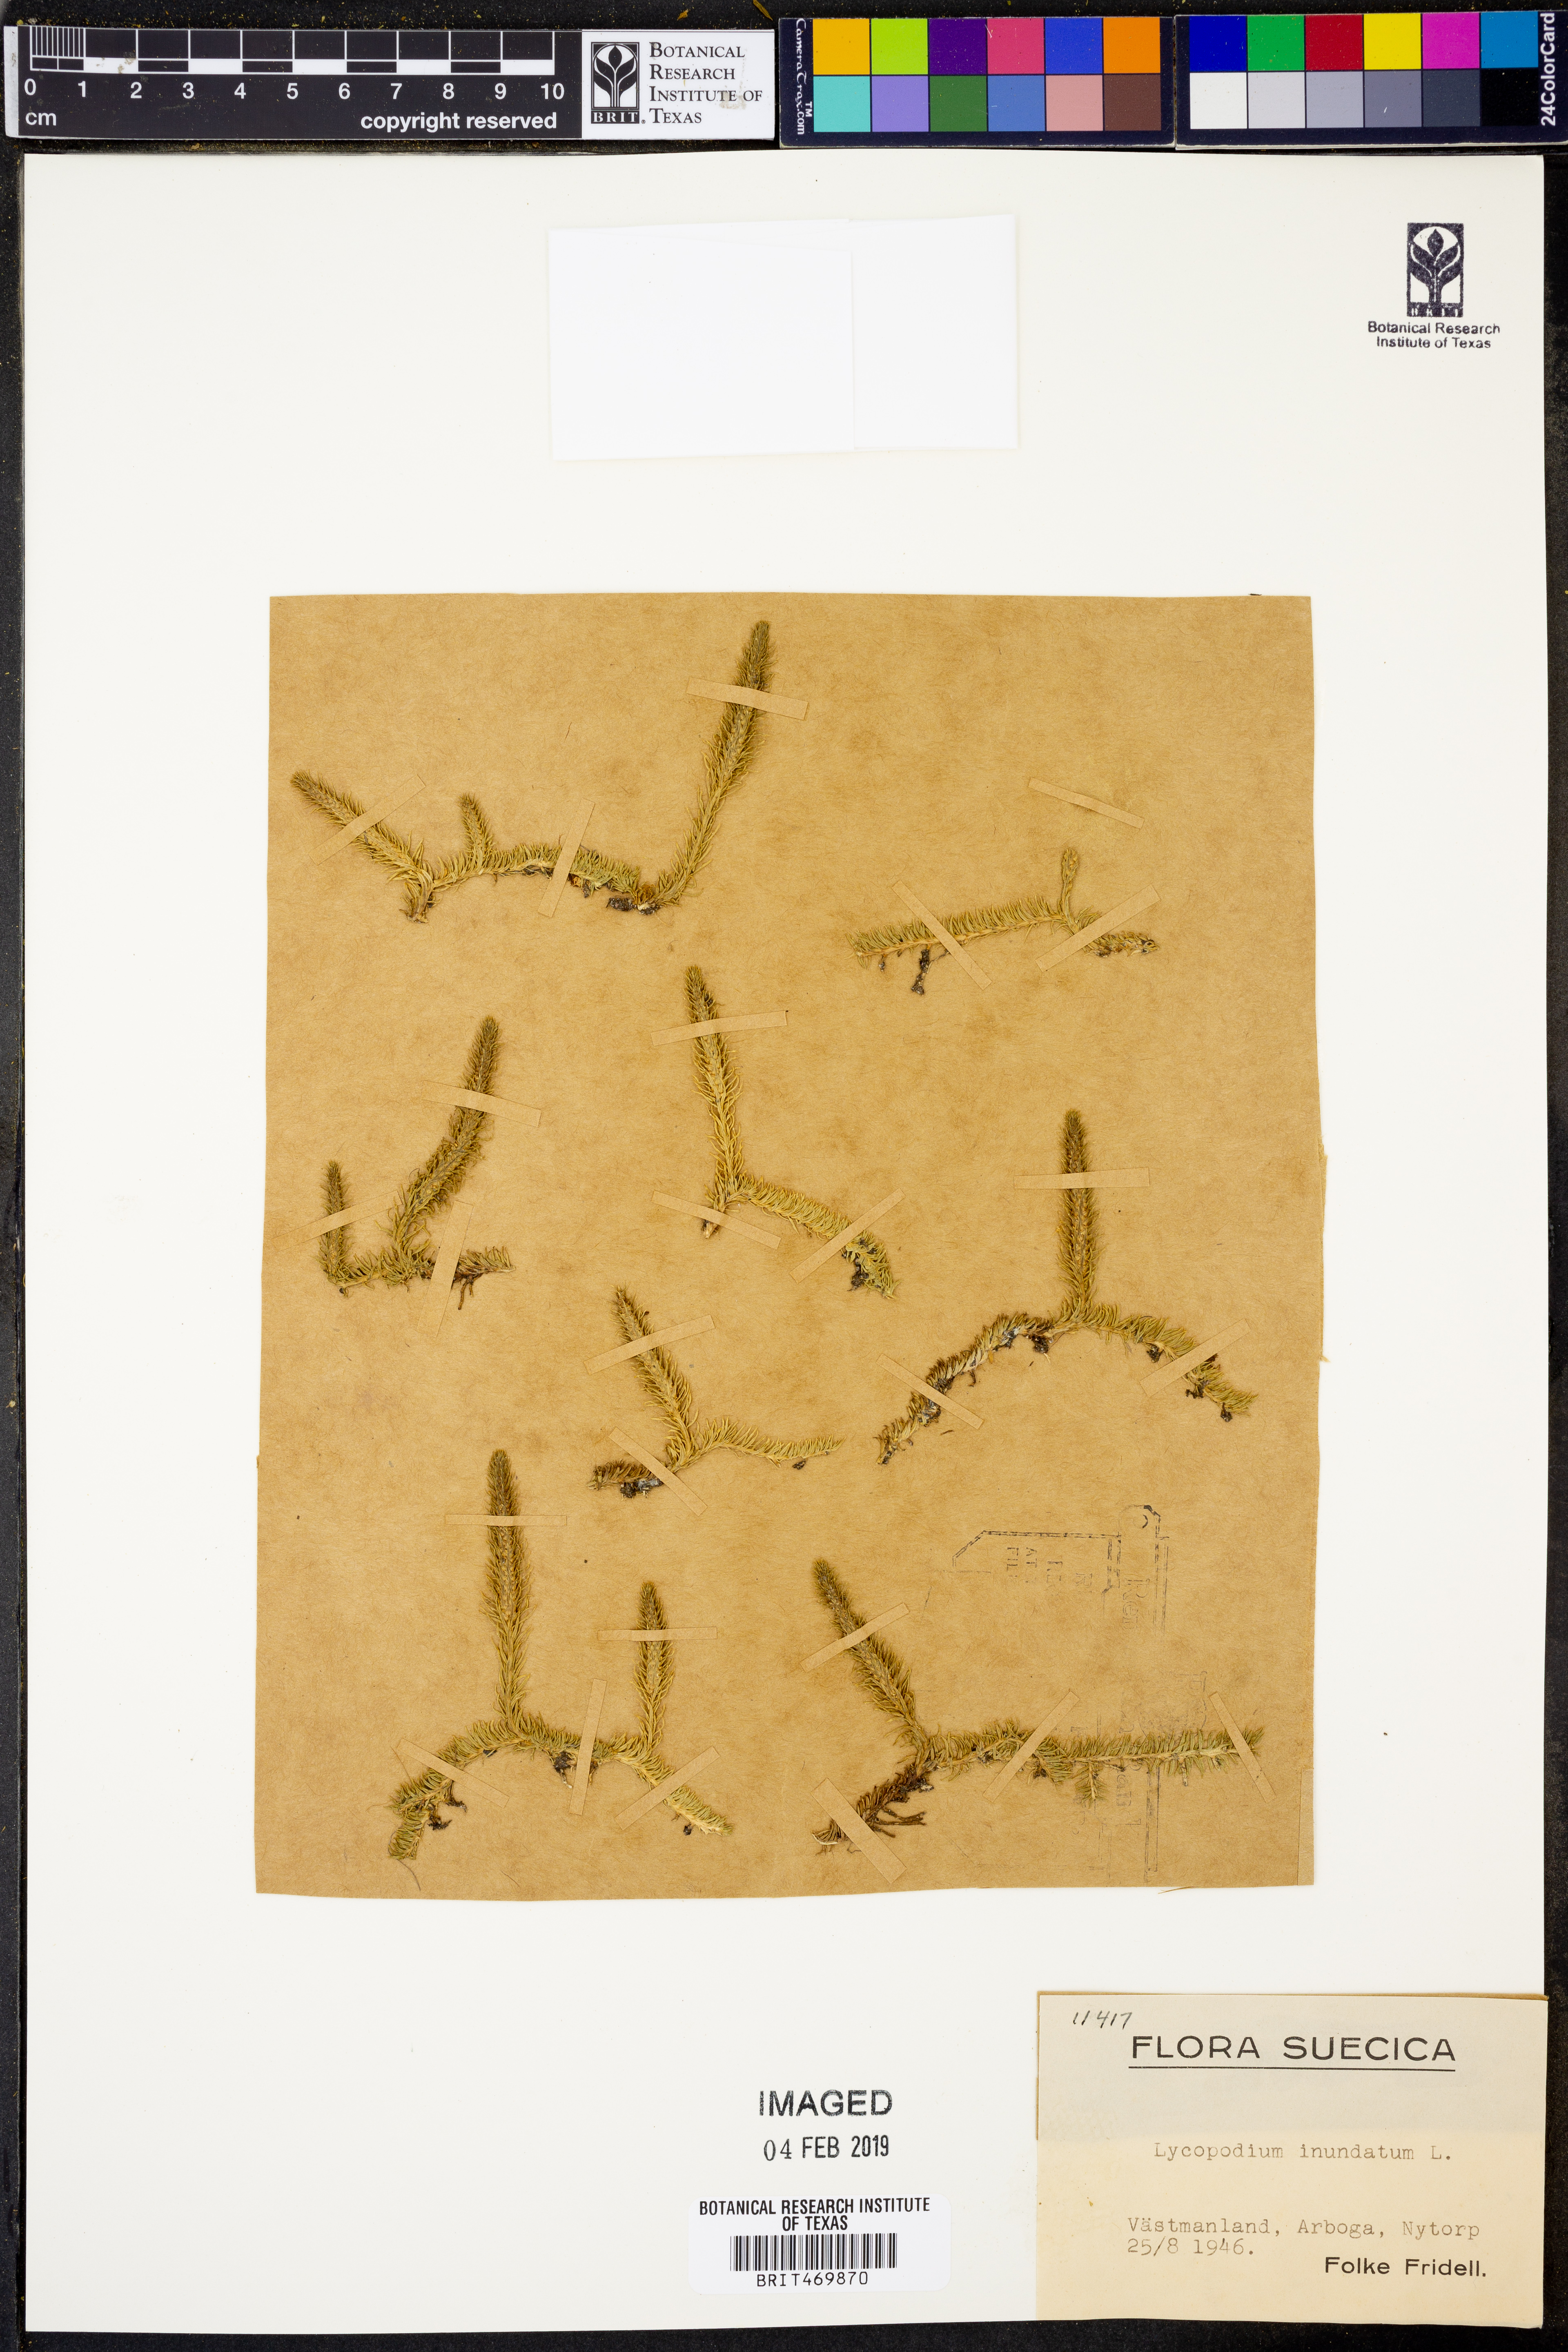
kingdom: Plantae
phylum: Tracheophyta
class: Lycopodiopsida
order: Lycopodiales
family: Lycopodiaceae
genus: Lycopodiella
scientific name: Lycopodiella inundata
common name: Marsh clubmoss
